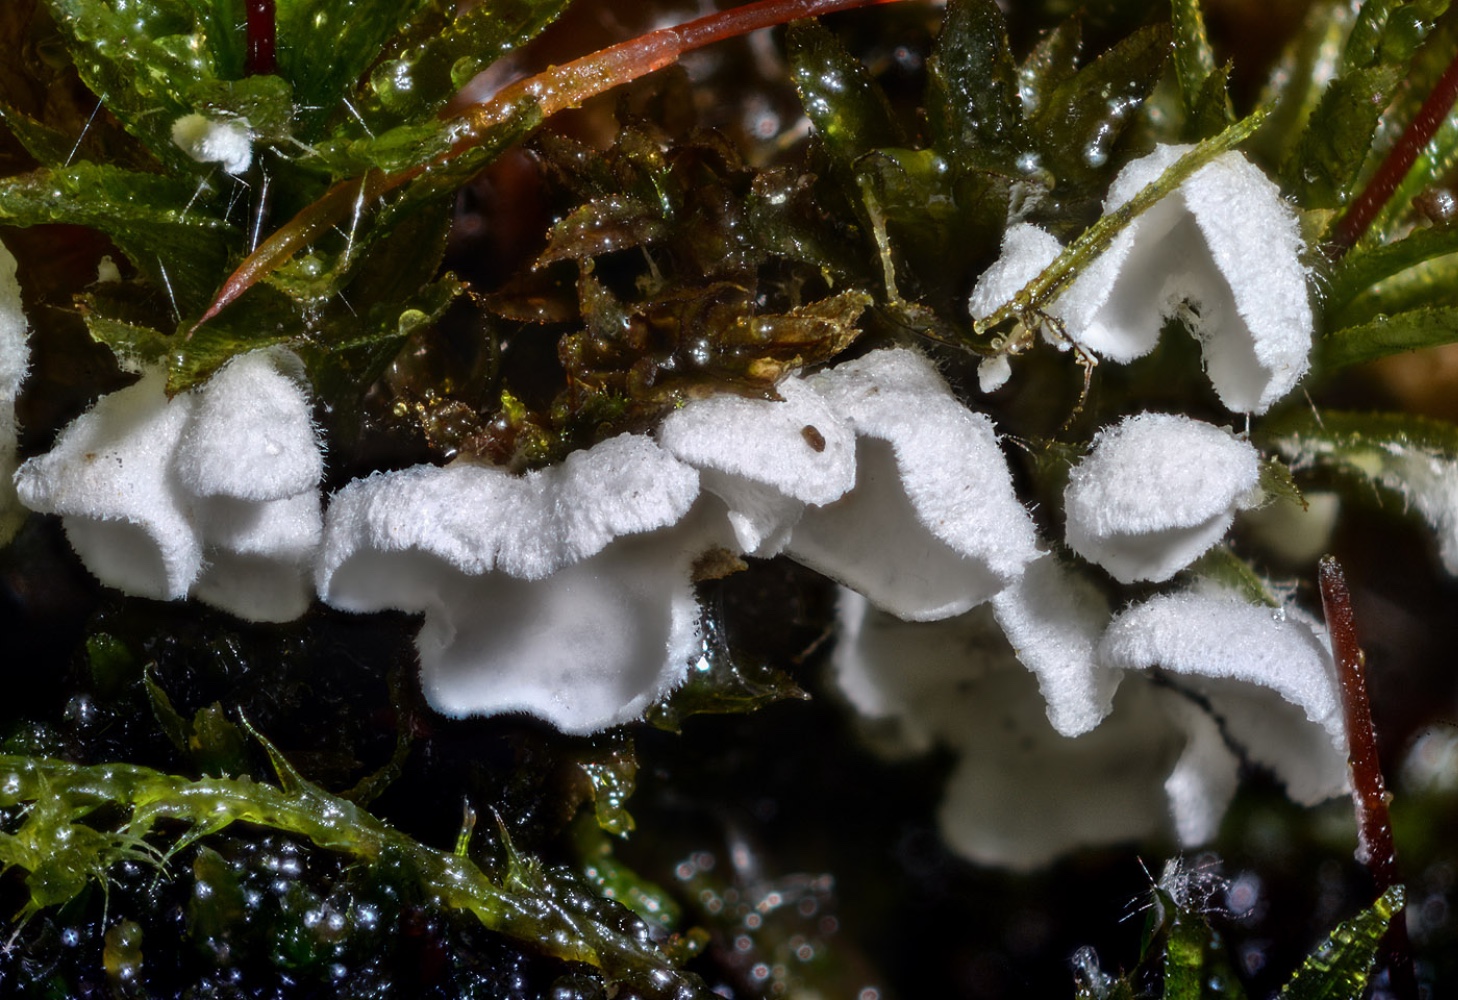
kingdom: Fungi
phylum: Basidiomycota
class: Agaricomycetes
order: Agaricales
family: Tricholomataceae
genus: Rimbachia
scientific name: Rimbachia arachnoidea
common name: Almindelig mosskål
